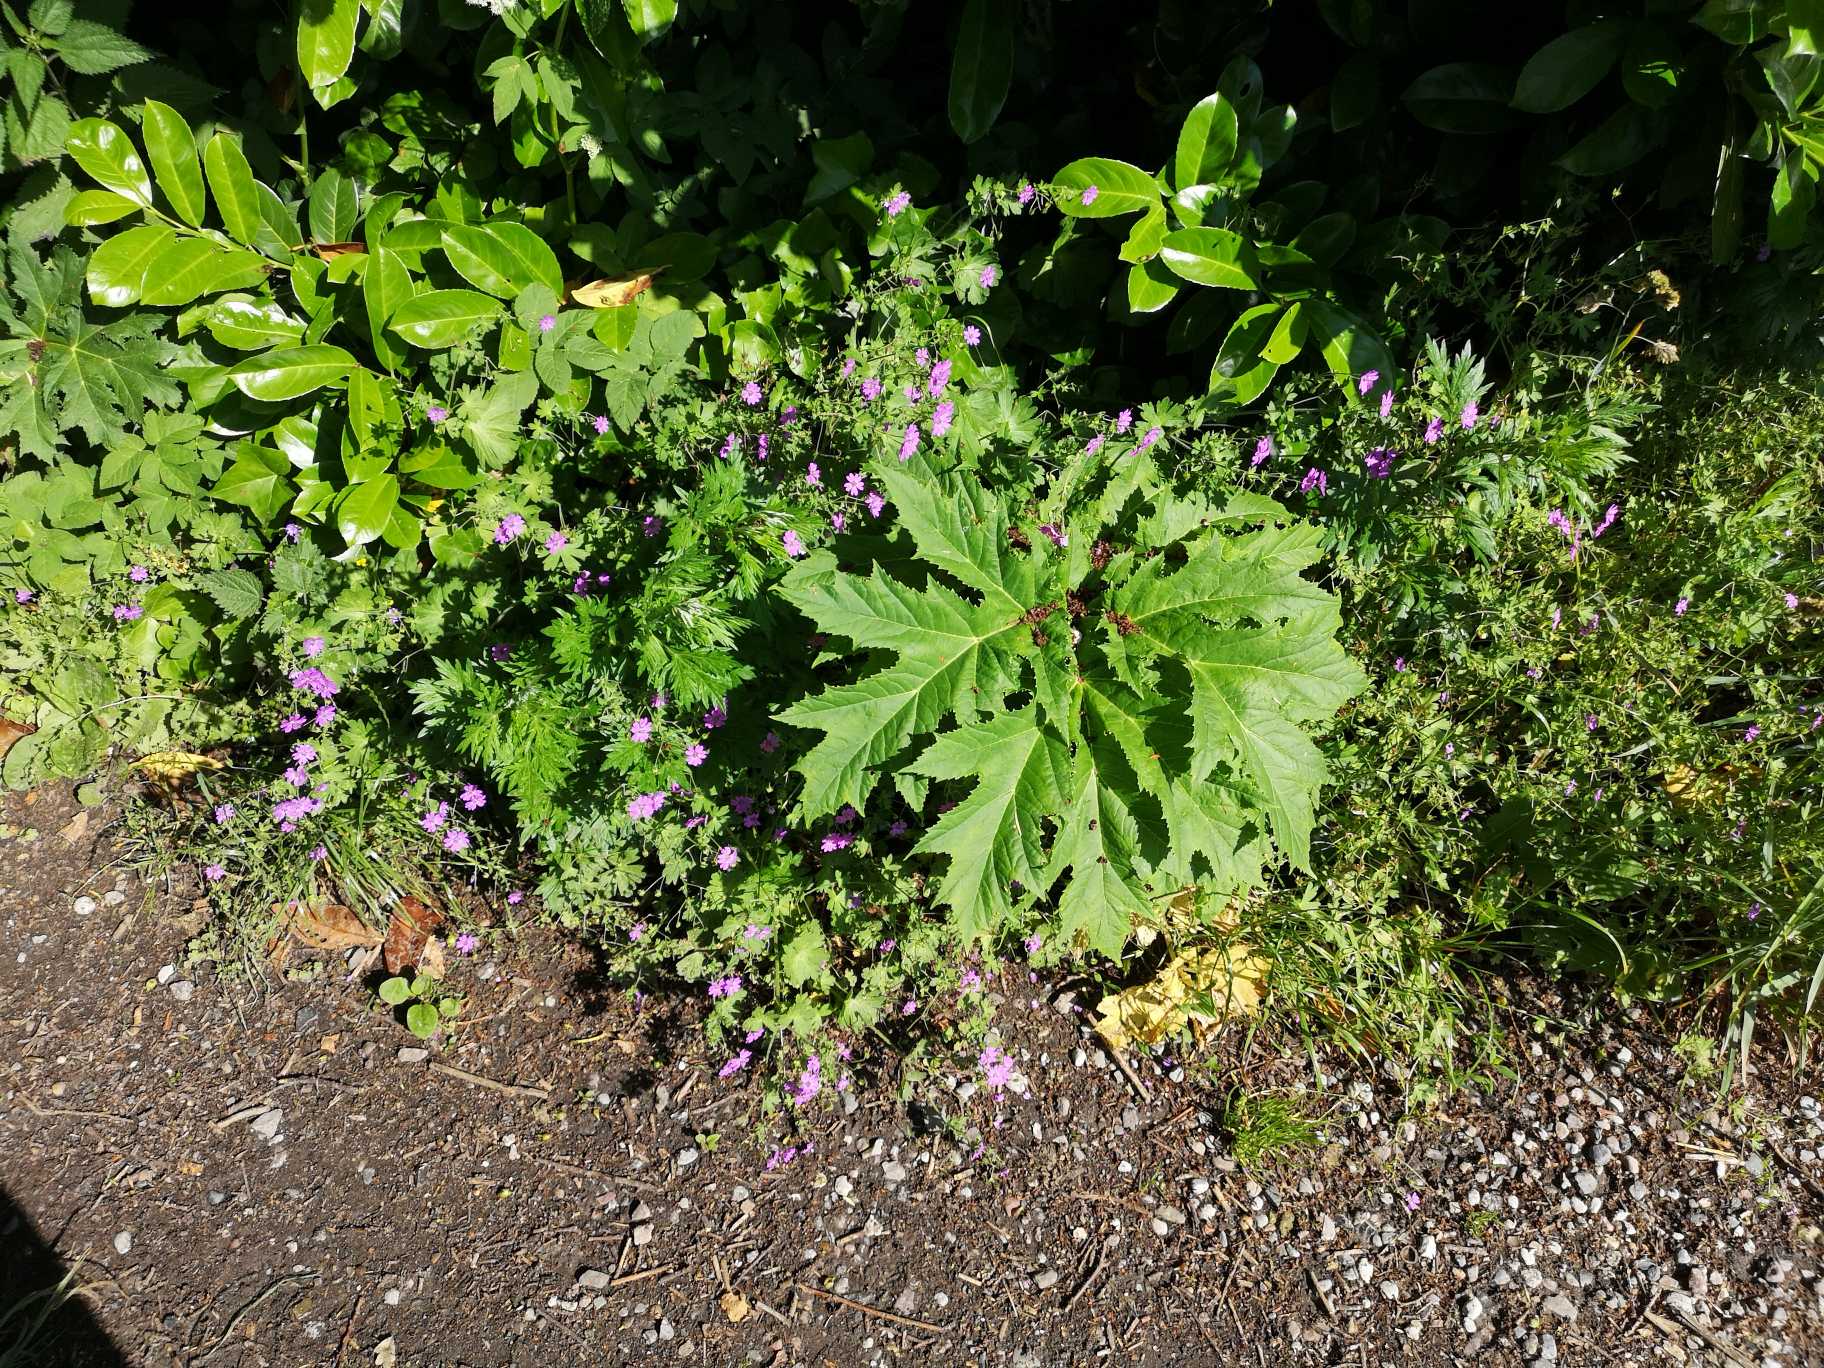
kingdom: Plantae
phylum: Tracheophyta
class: Magnoliopsida
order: Apiales
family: Apiaceae
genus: Heracleum
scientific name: Heracleum mantegazzianum
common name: Kæmpe-bjørneklo
